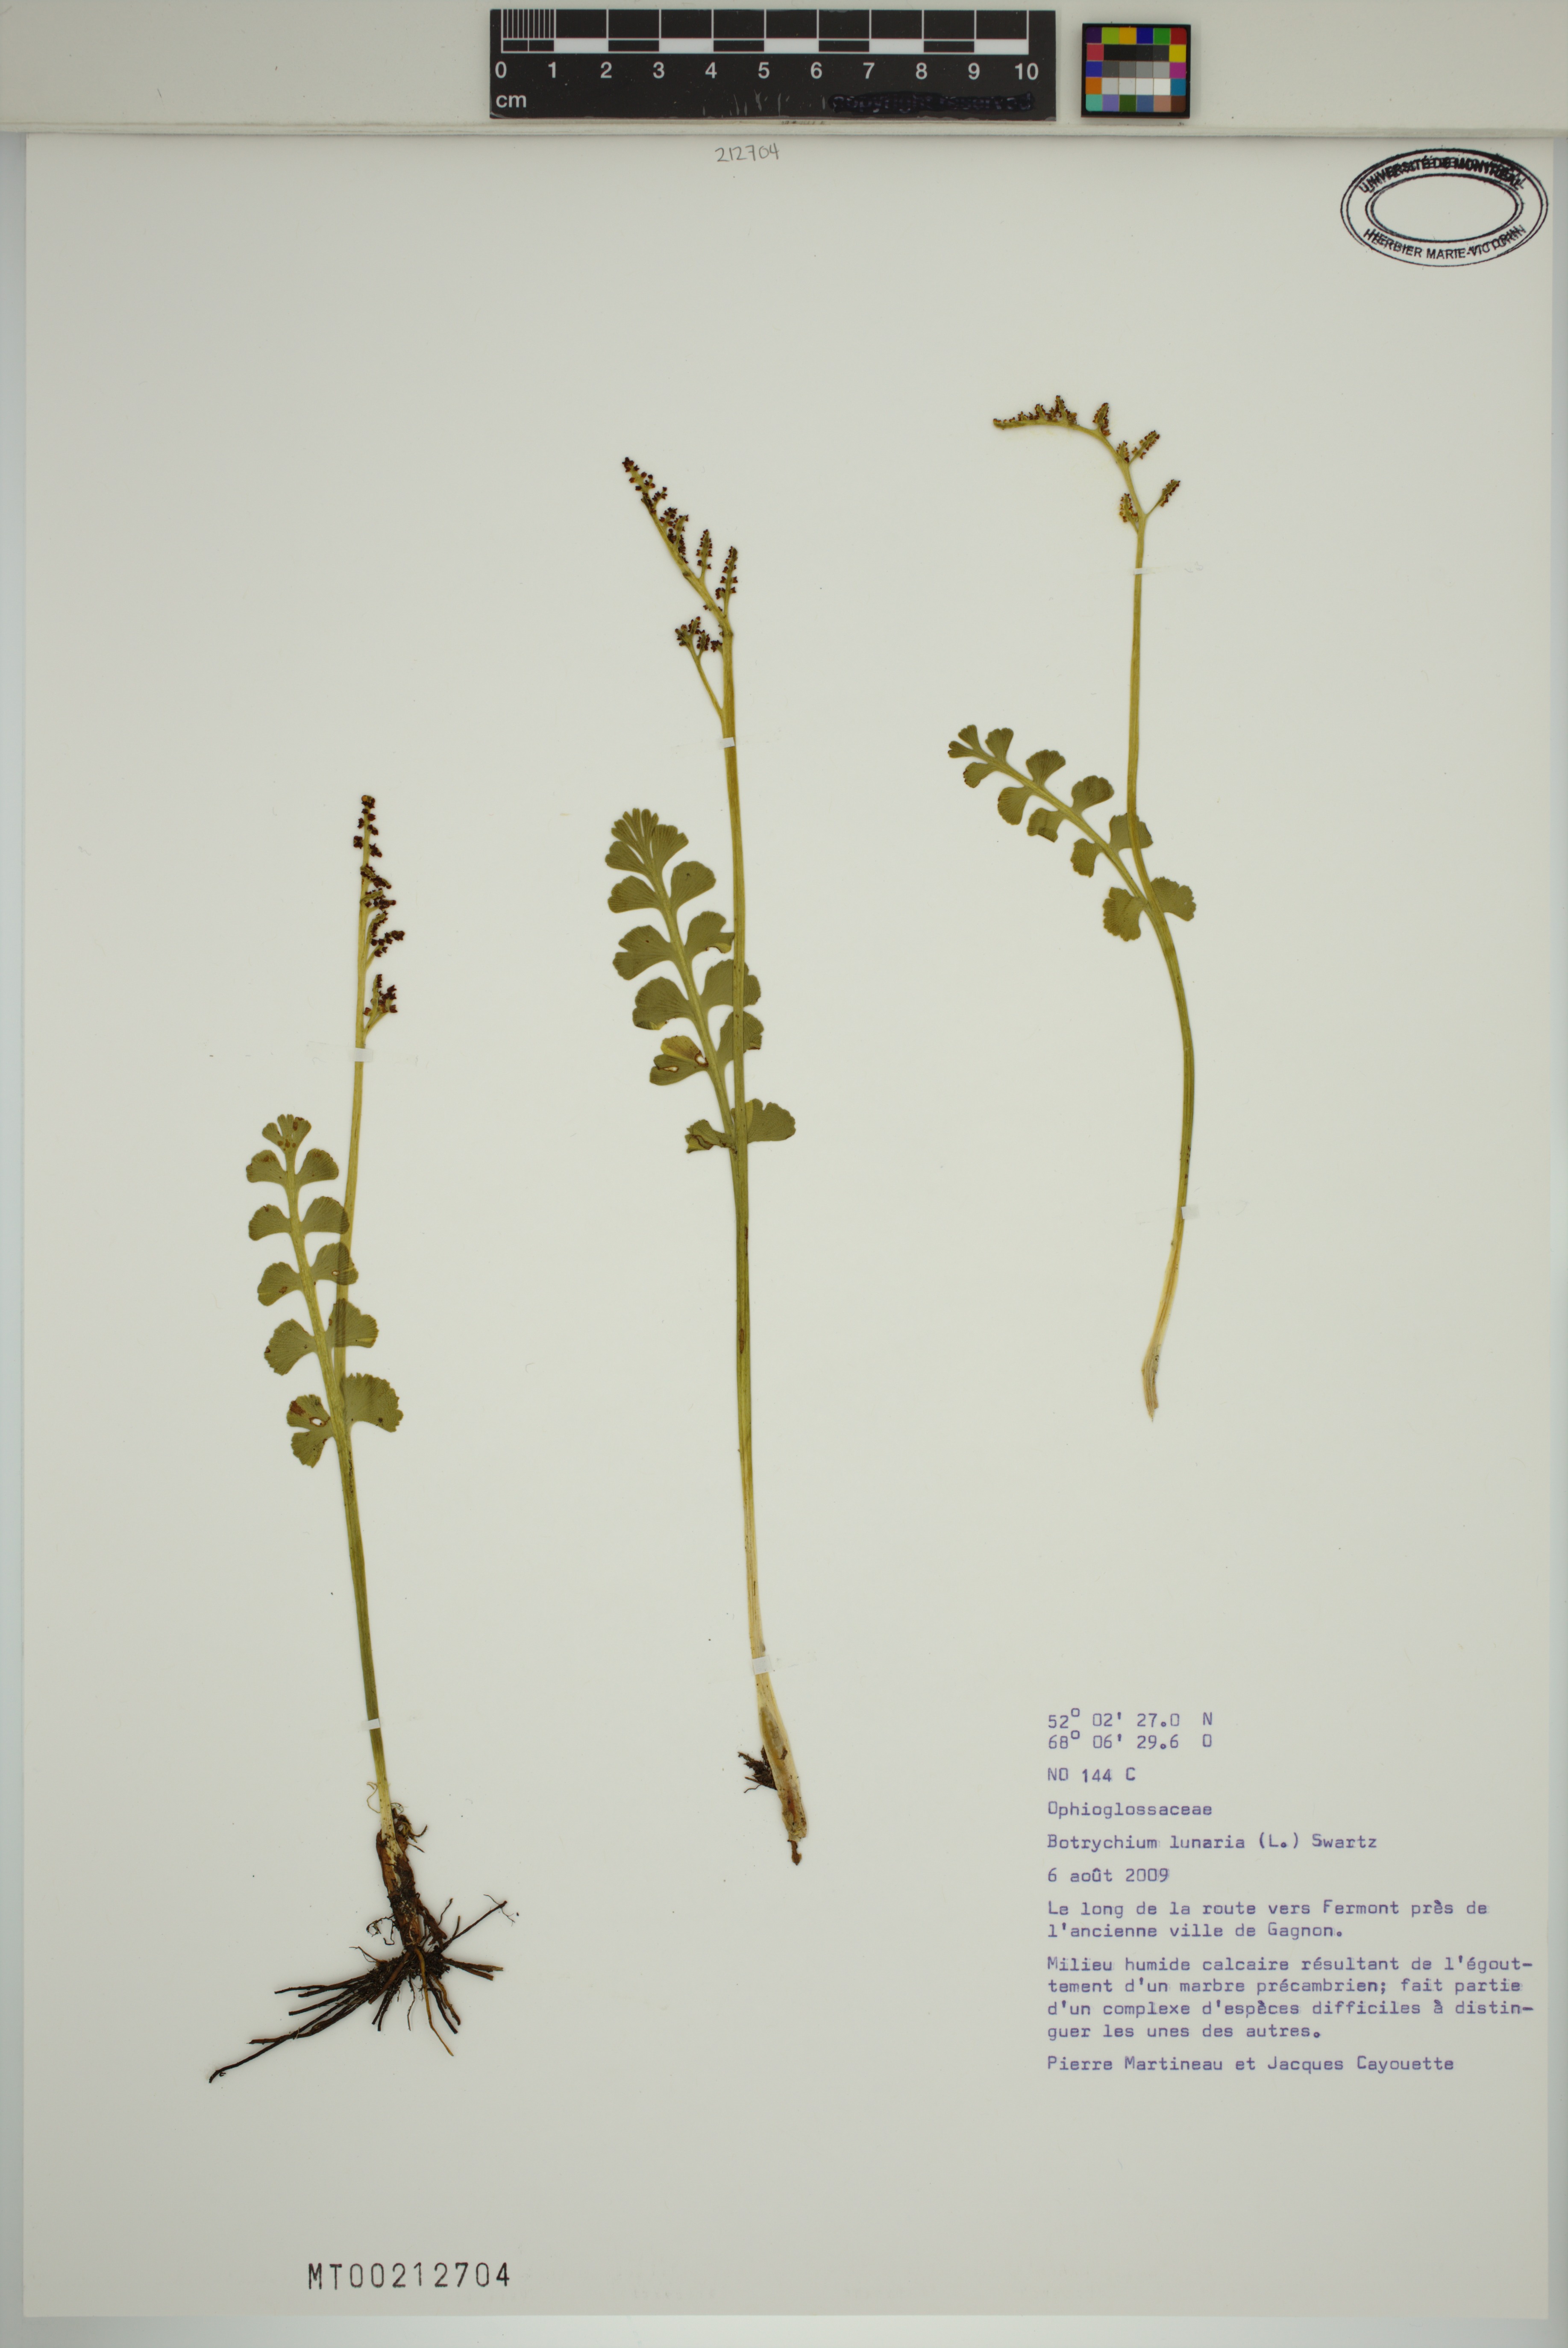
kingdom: Plantae
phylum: Tracheophyta
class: Polypodiopsida
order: Ophioglossales
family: Ophioglossaceae
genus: Botrychium
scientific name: Botrychium lunaria
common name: Moonwort
